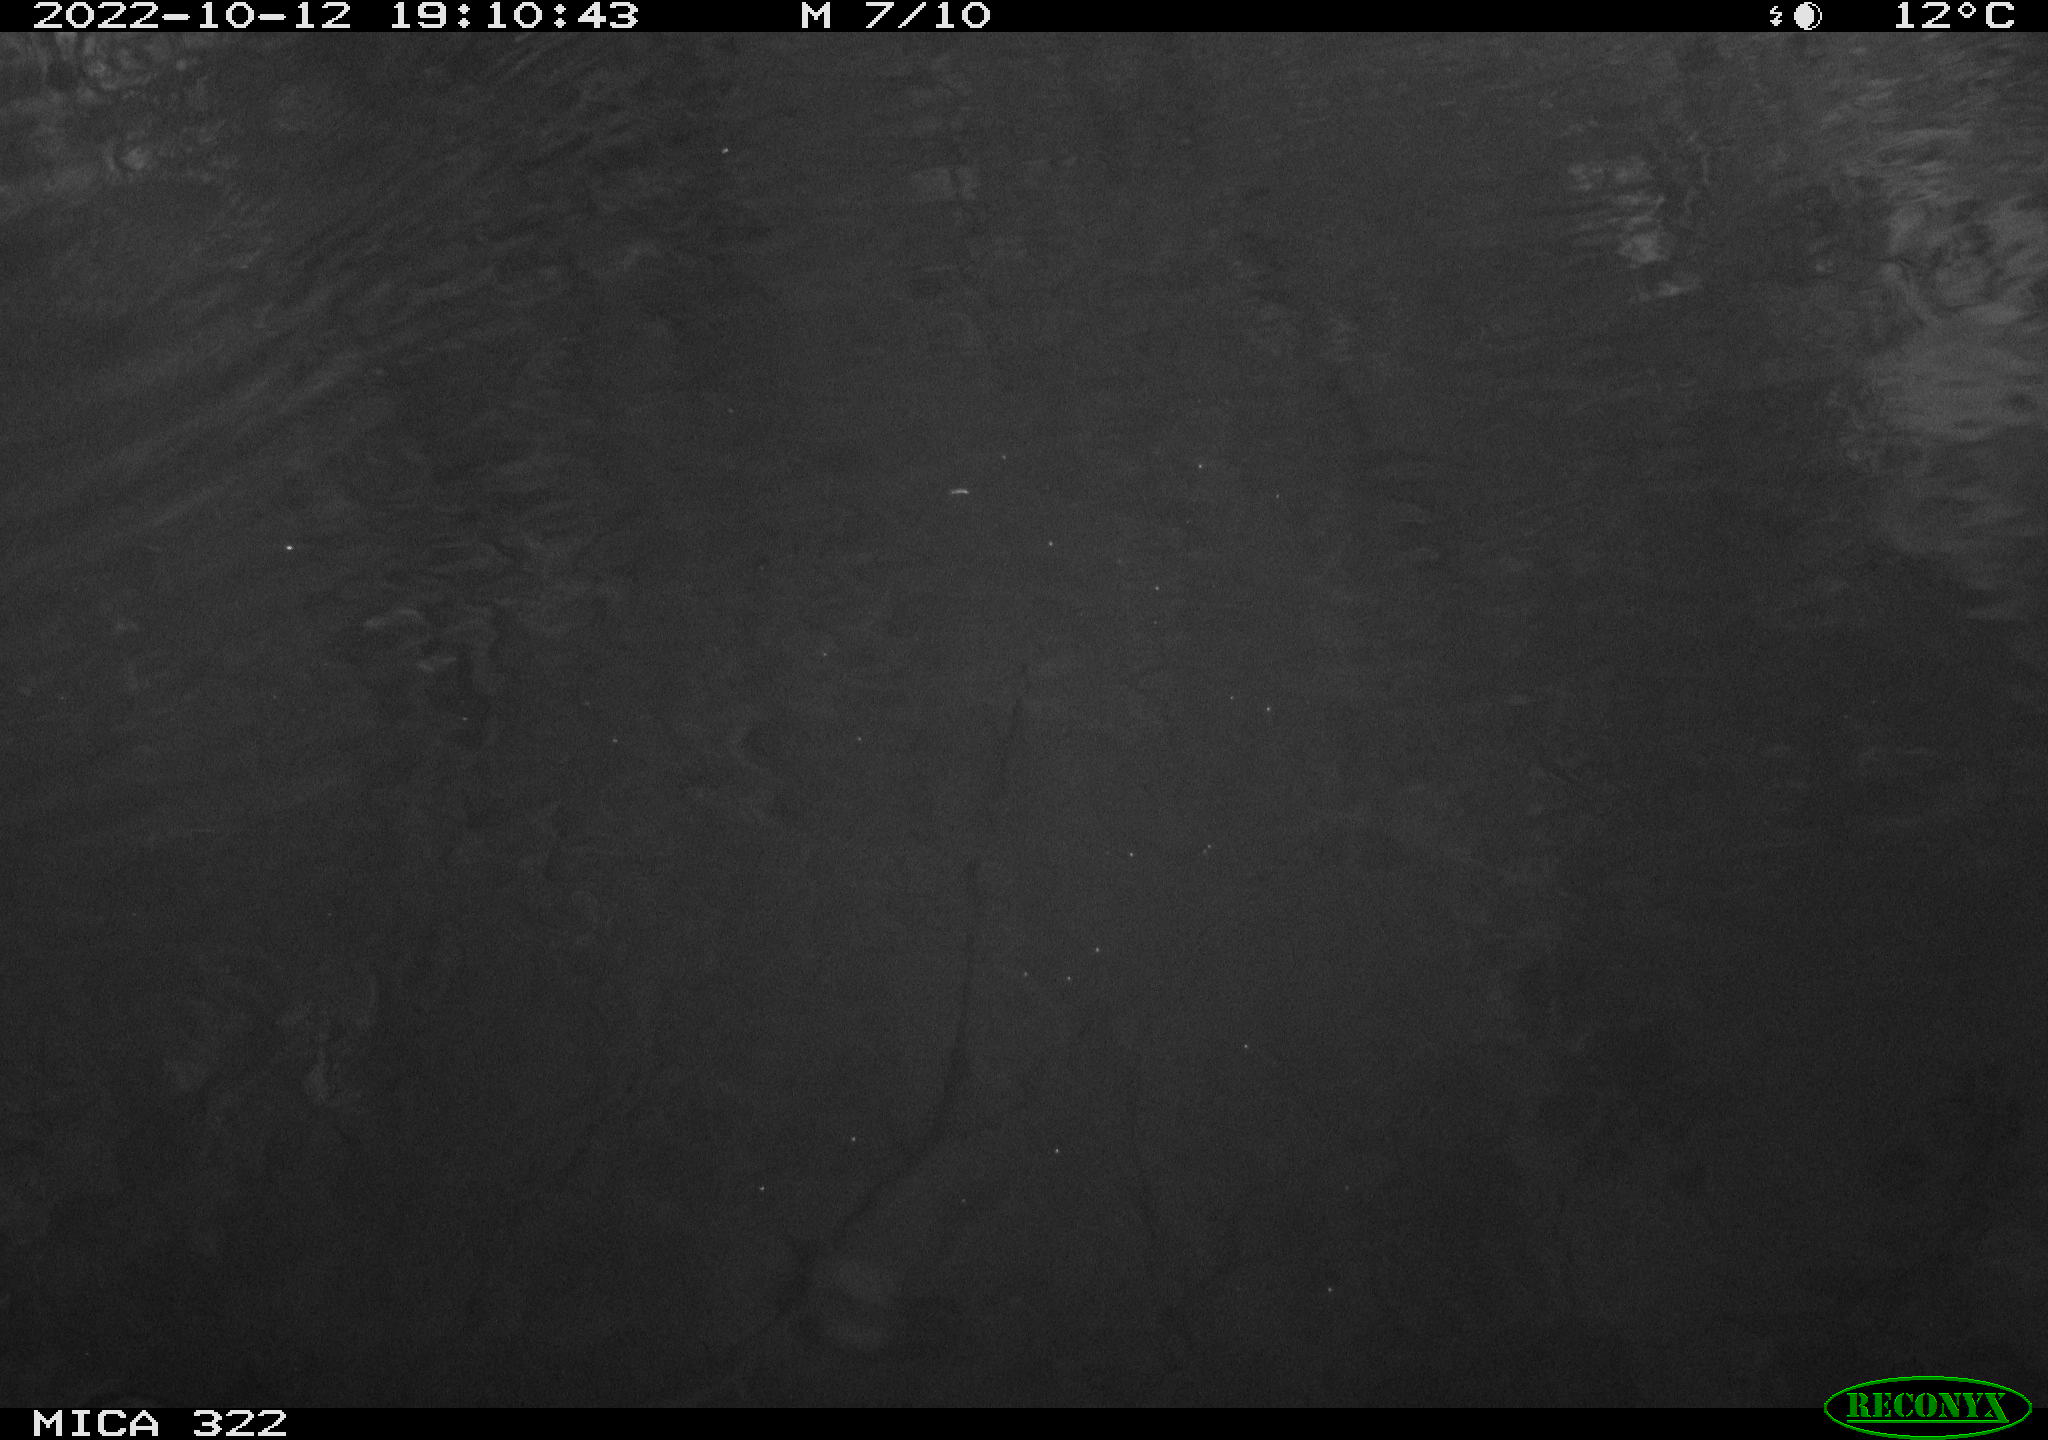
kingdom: Animalia
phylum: Chordata
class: Mammalia
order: Rodentia
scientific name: Rodentia
